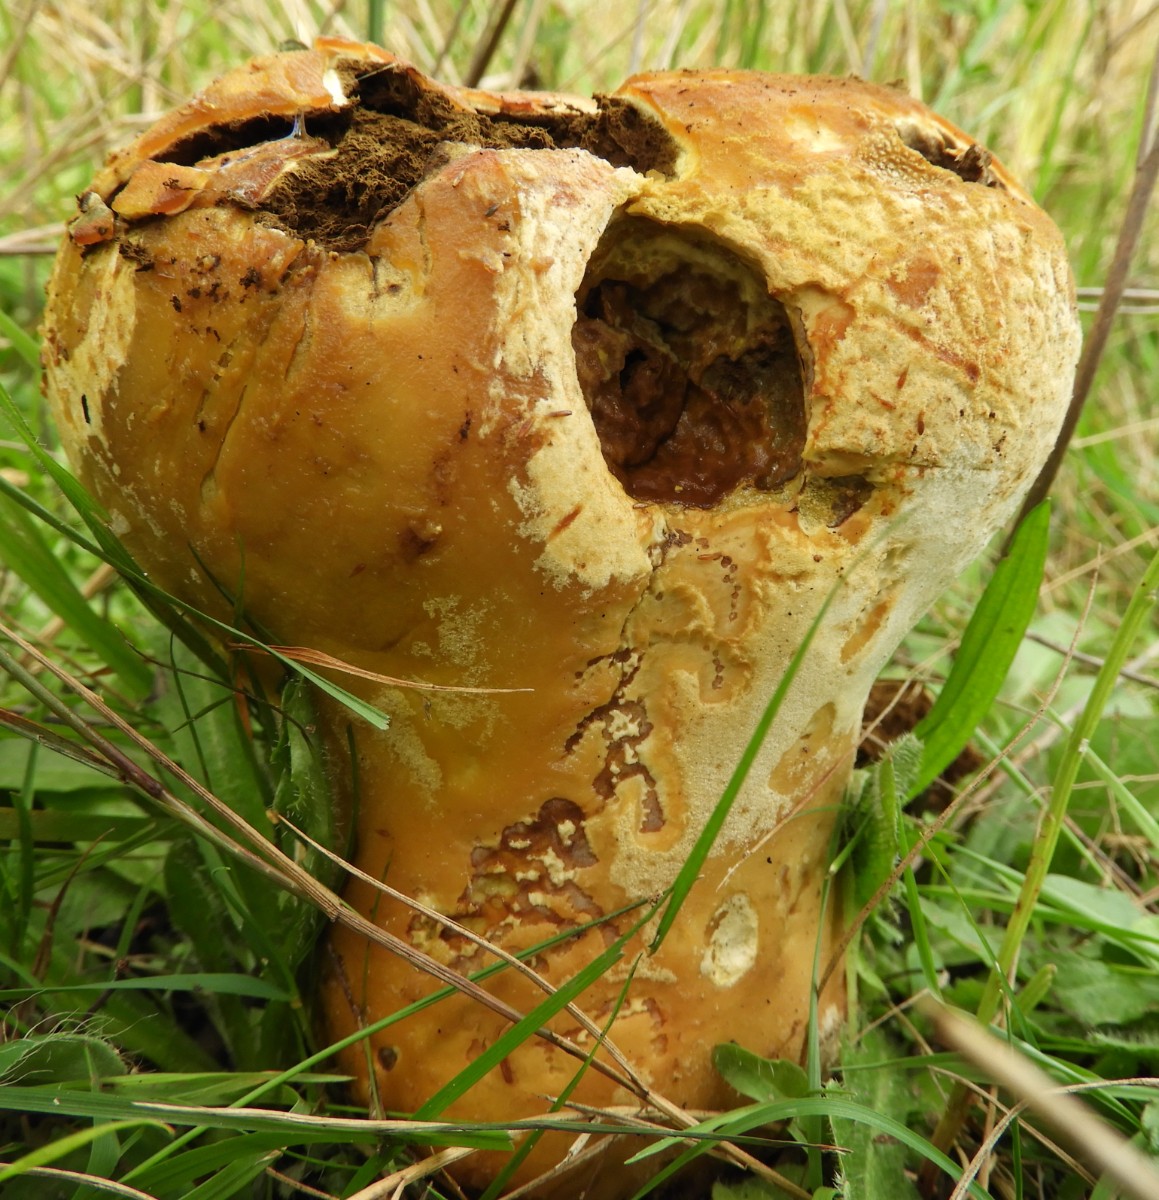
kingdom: Fungi
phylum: Basidiomycota
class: Agaricomycetes
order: Agaricales
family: Lycoperdaceae
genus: Lycoperdon
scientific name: Lycoperdon excipuliforme
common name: højstokket støvbold
